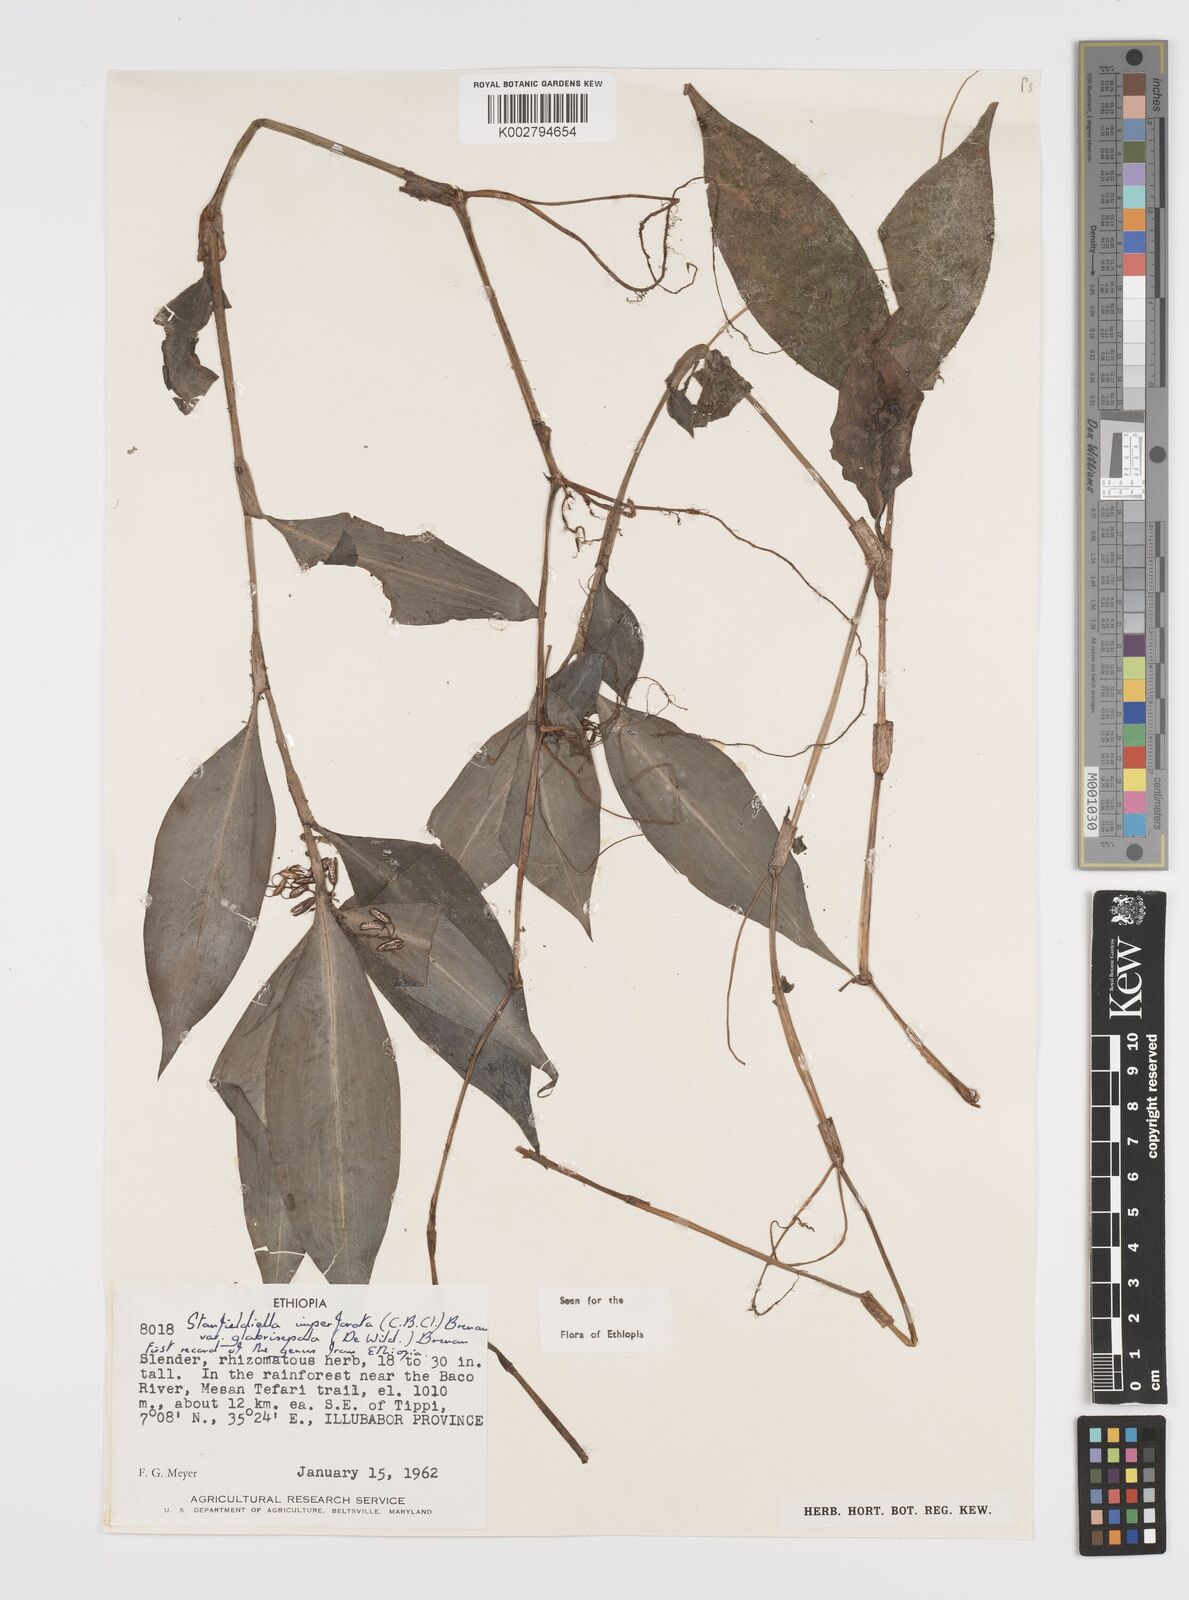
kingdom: Plantae
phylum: Tracheophyta
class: Liliopsida
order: Commelinales
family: Commelinaceae
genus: Stanfieldiella
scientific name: Stanfieldiella imperforata
